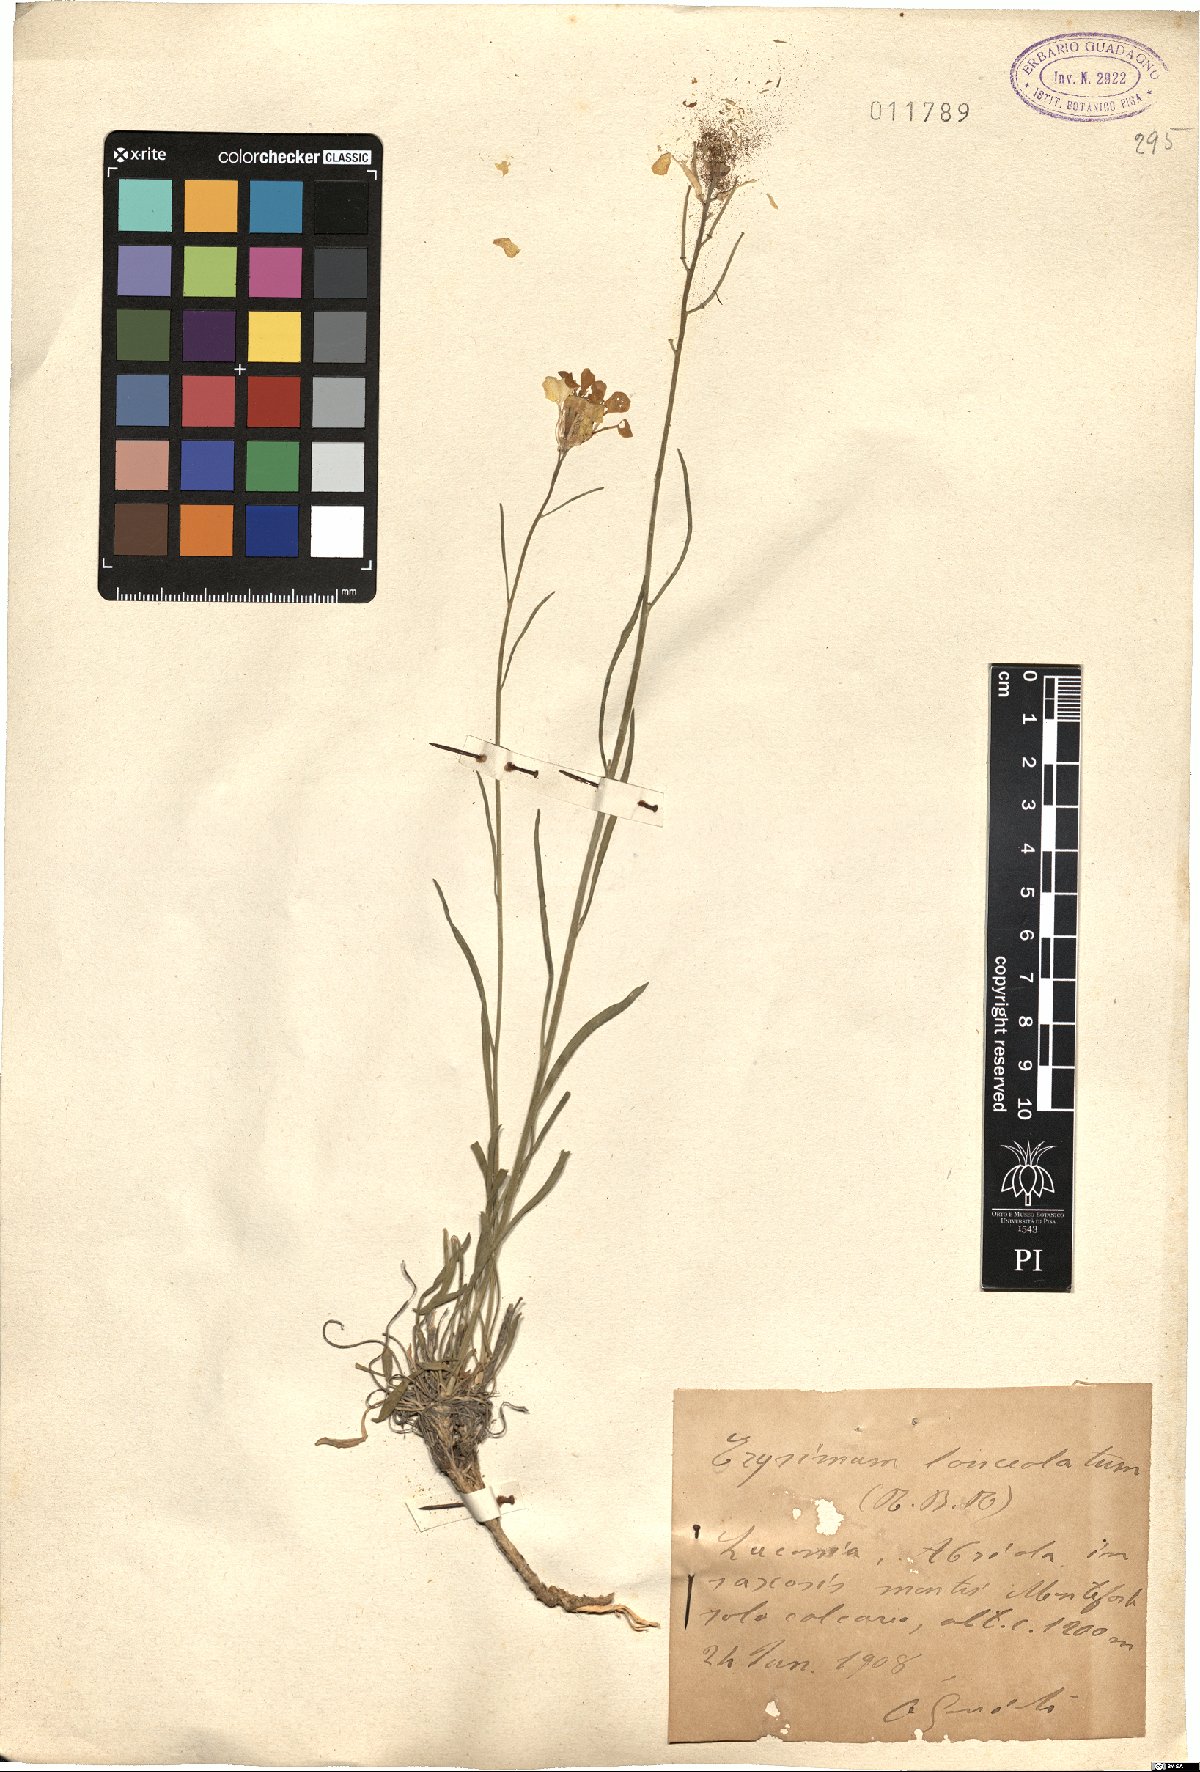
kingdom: Plantae
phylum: Tracheophyta
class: Magnoliopsida
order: Brassicales
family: Brassicaceae
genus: Erysimum
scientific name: Erysimum nevadense
